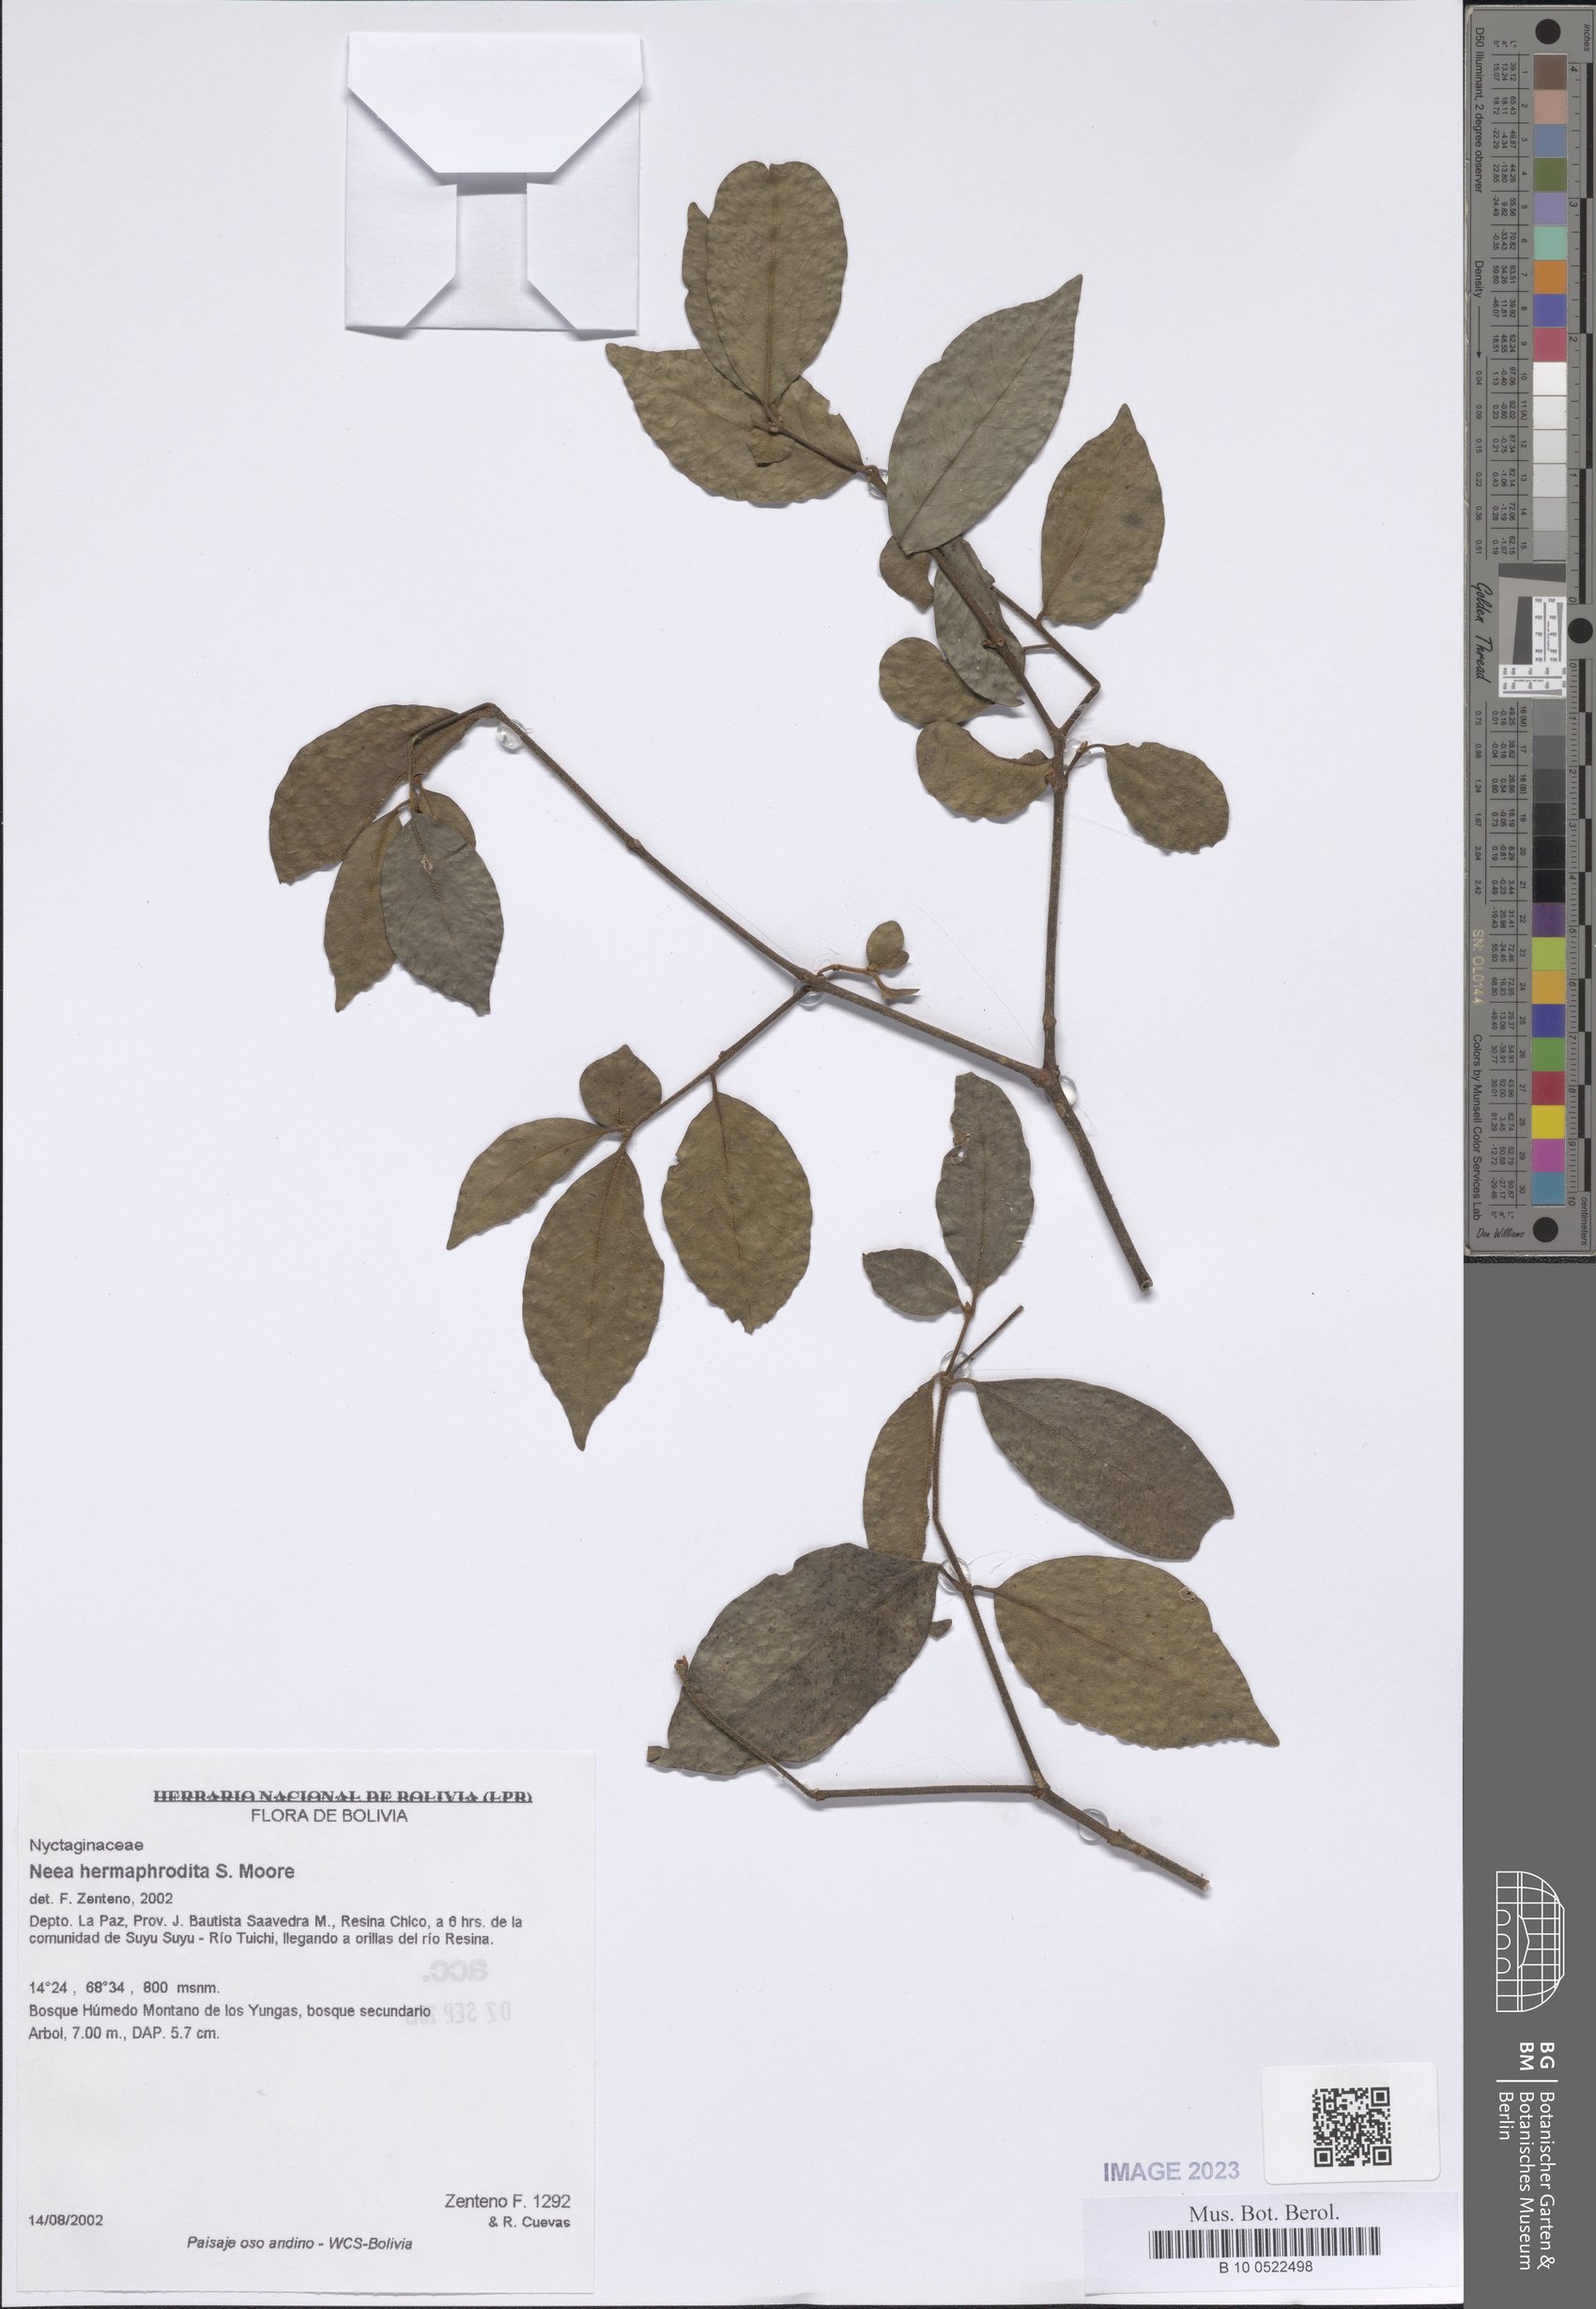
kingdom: Plantae
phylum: Tracheophyta
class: Magnoliopsida
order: Caryophyllales
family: Nyctaginaceae
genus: Neea
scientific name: Neea hermaphrodita
